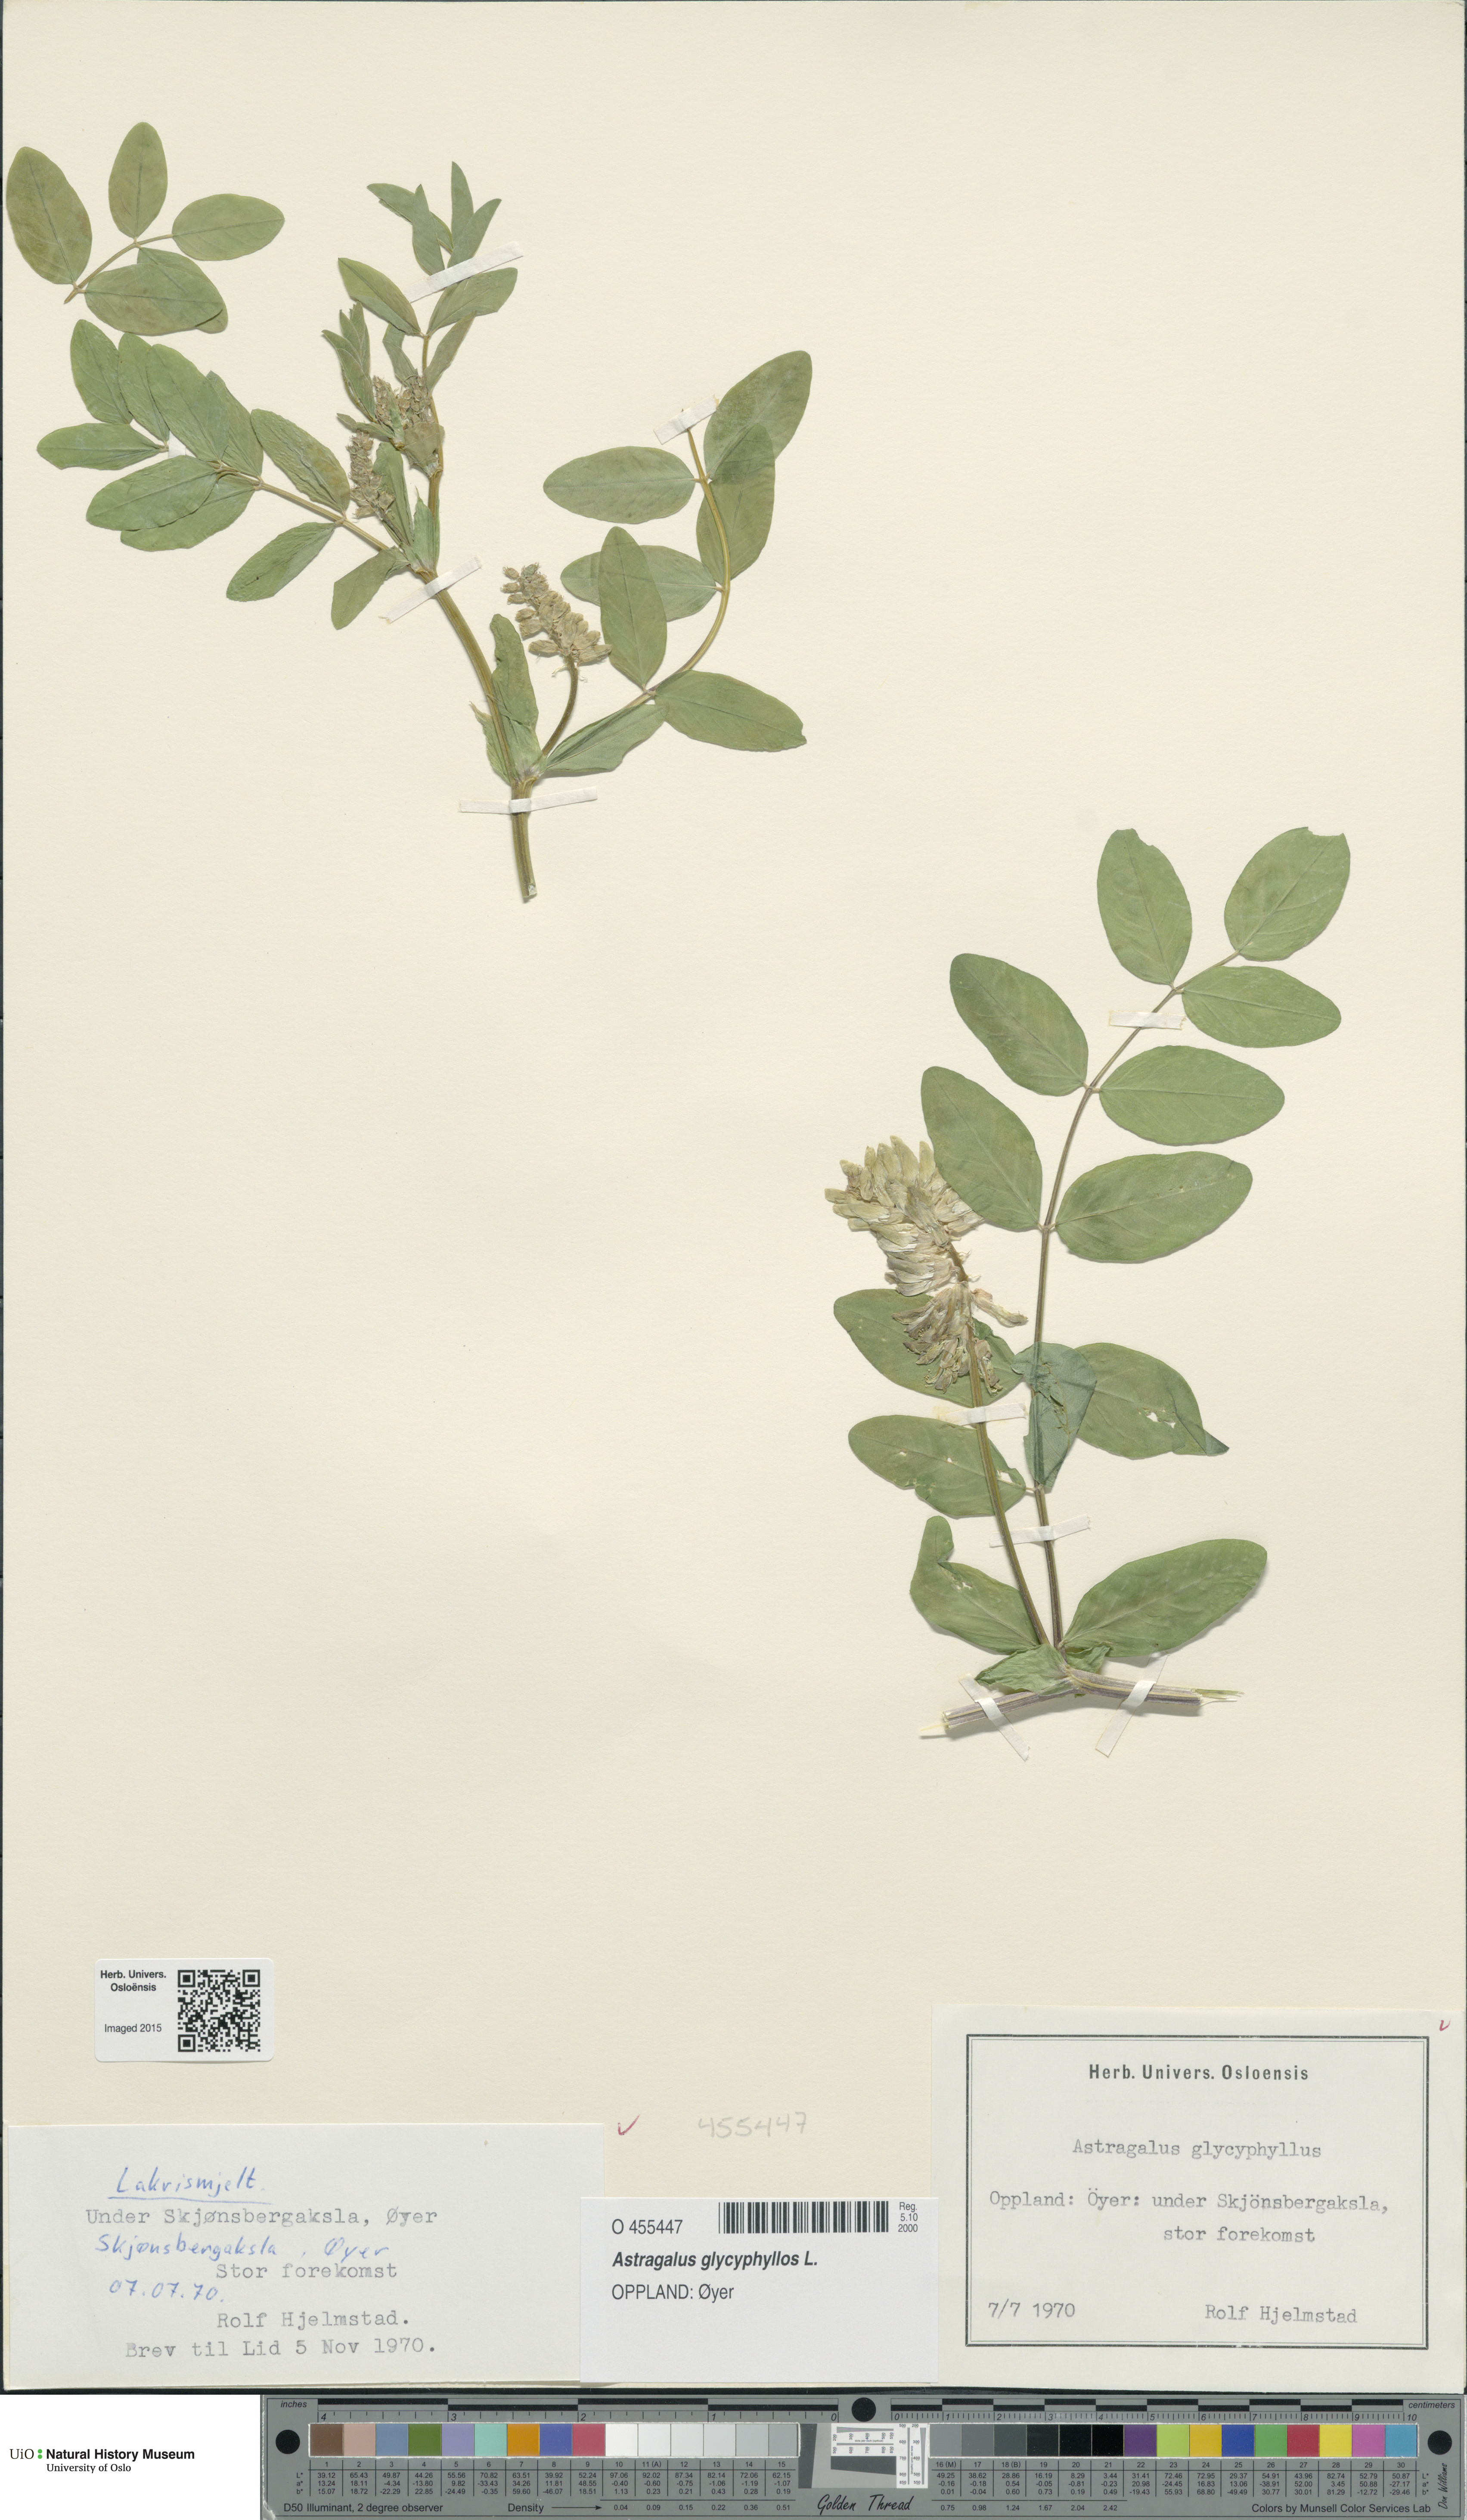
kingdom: Plantae
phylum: Tracheophyta
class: Magnoliopsida
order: Fabales
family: Fabaceae
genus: Astragalus
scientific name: Astragalus glycyphyllos
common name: Wild liquorice
